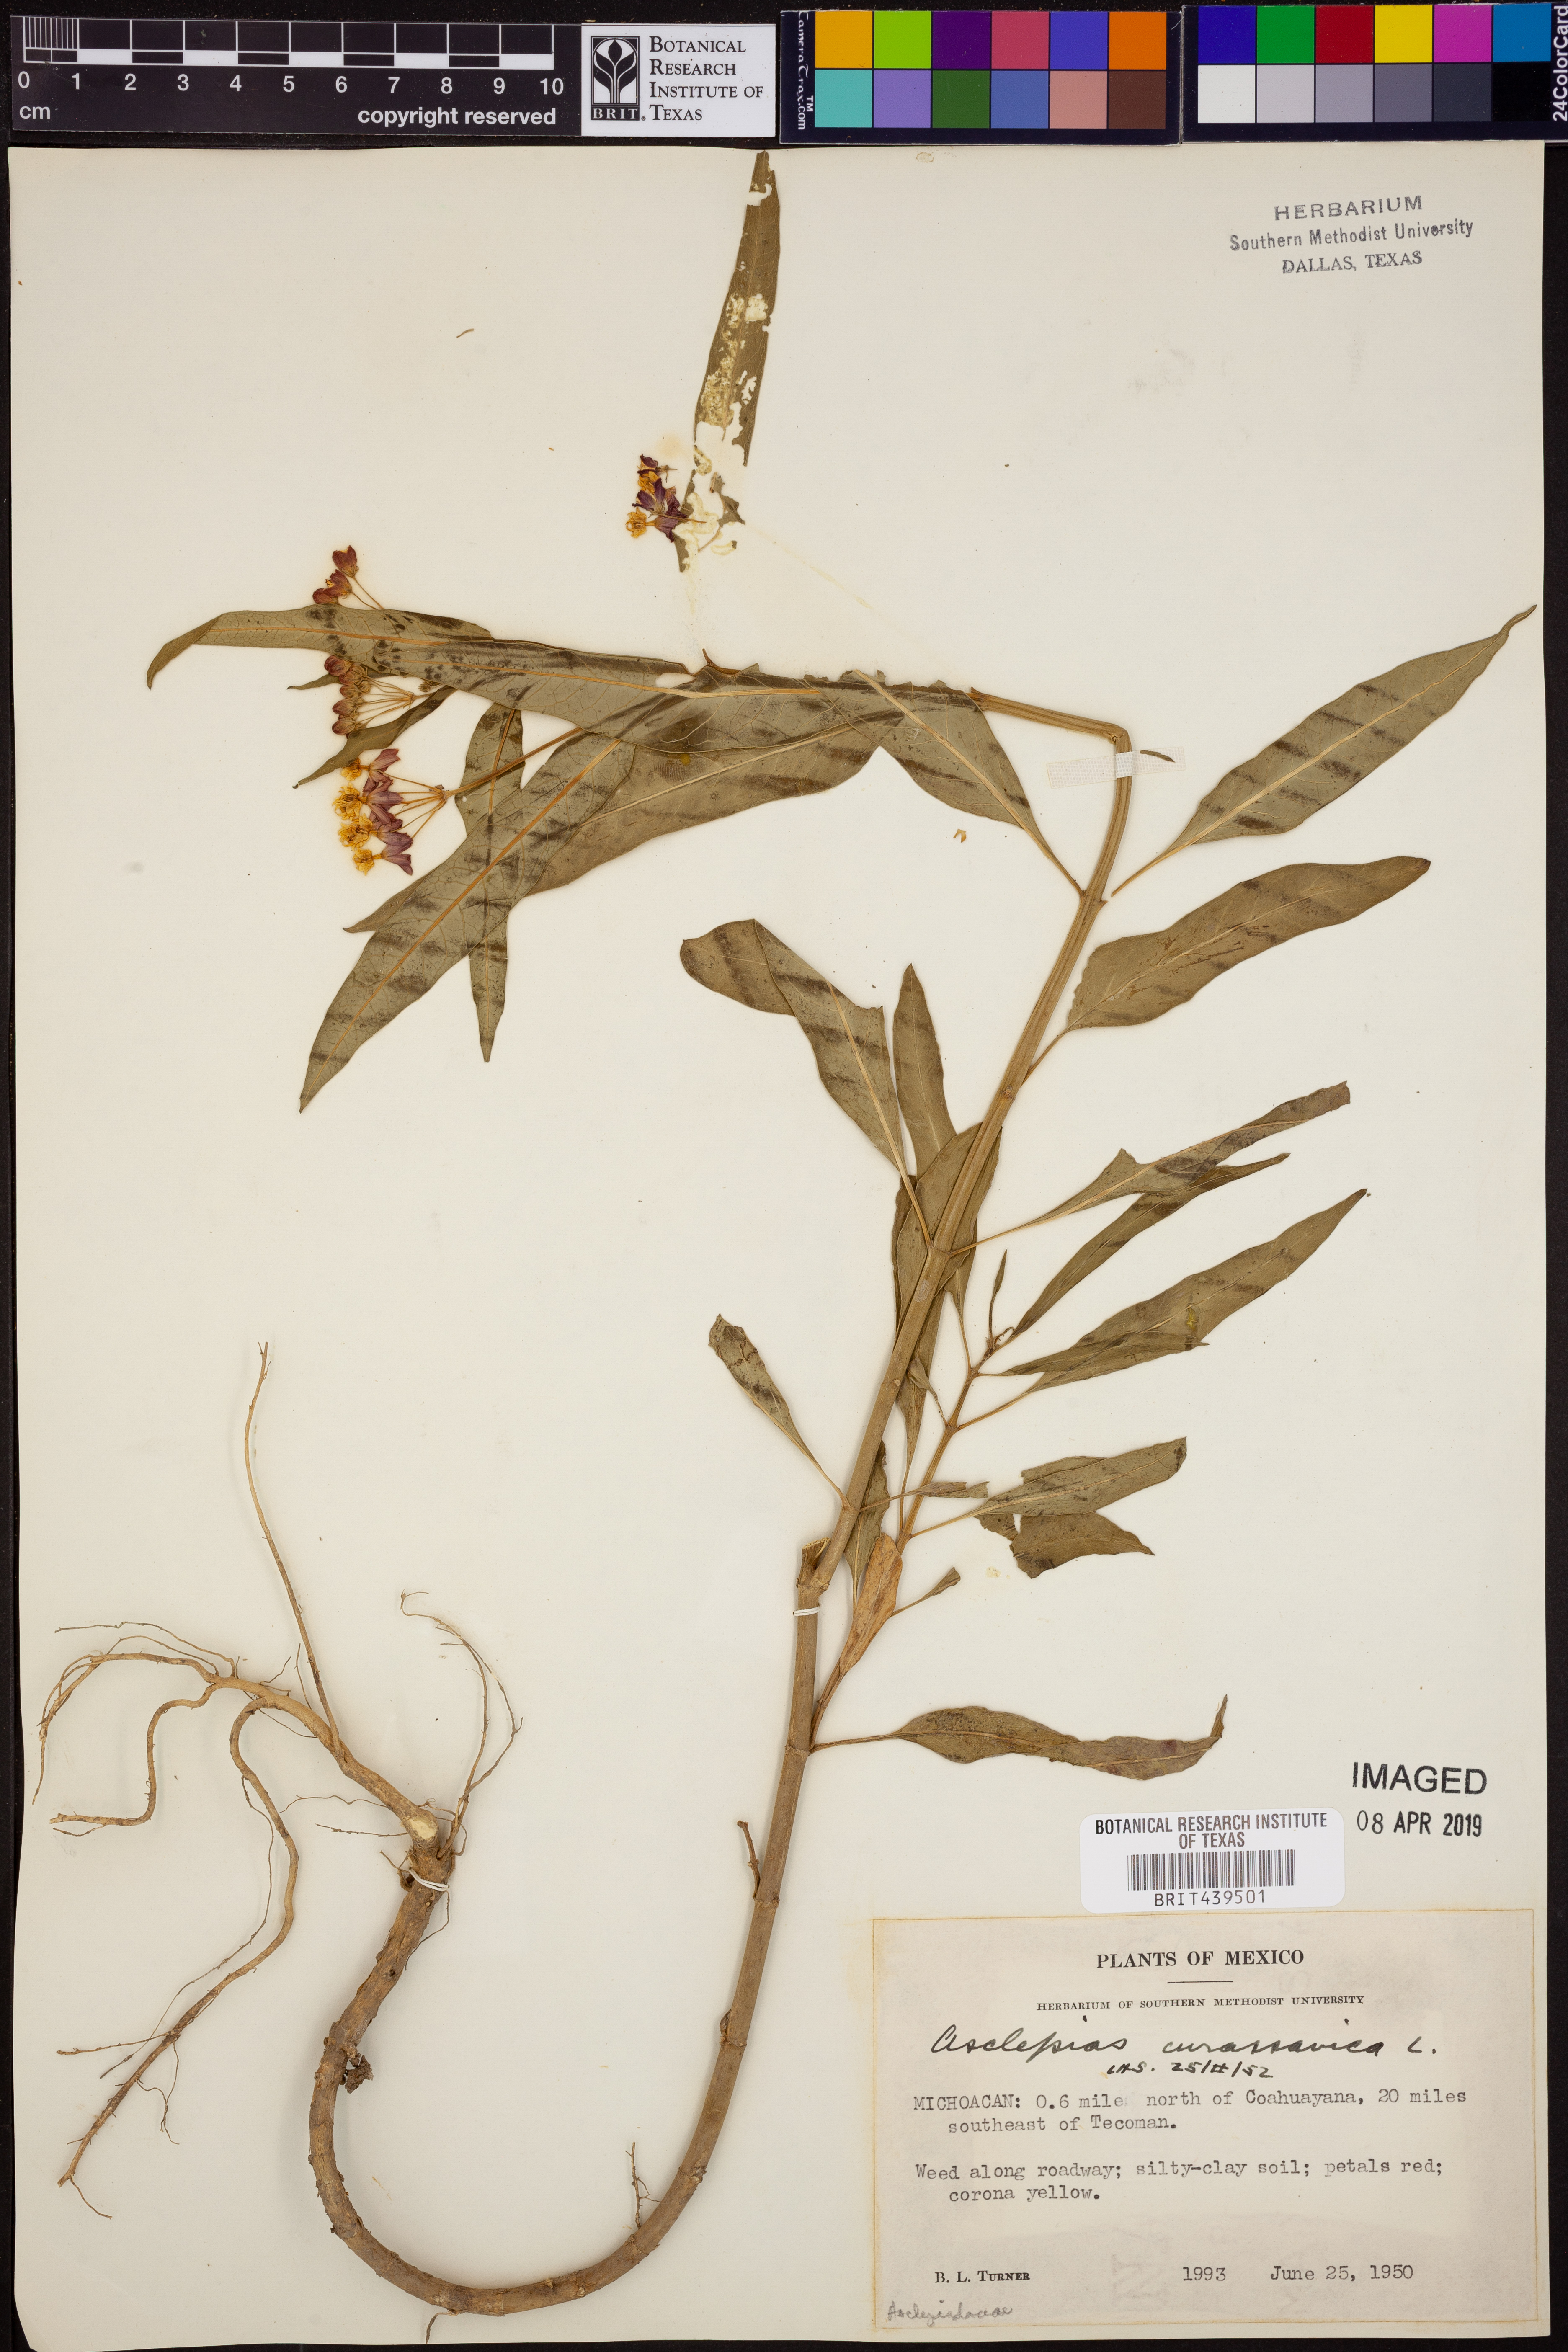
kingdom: Plantae
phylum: Tracheophyta
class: Magnoliopsida
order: Gentianales
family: Apocynaceae
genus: Asclepias
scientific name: Asclepias curassavica
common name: Bloodflower
